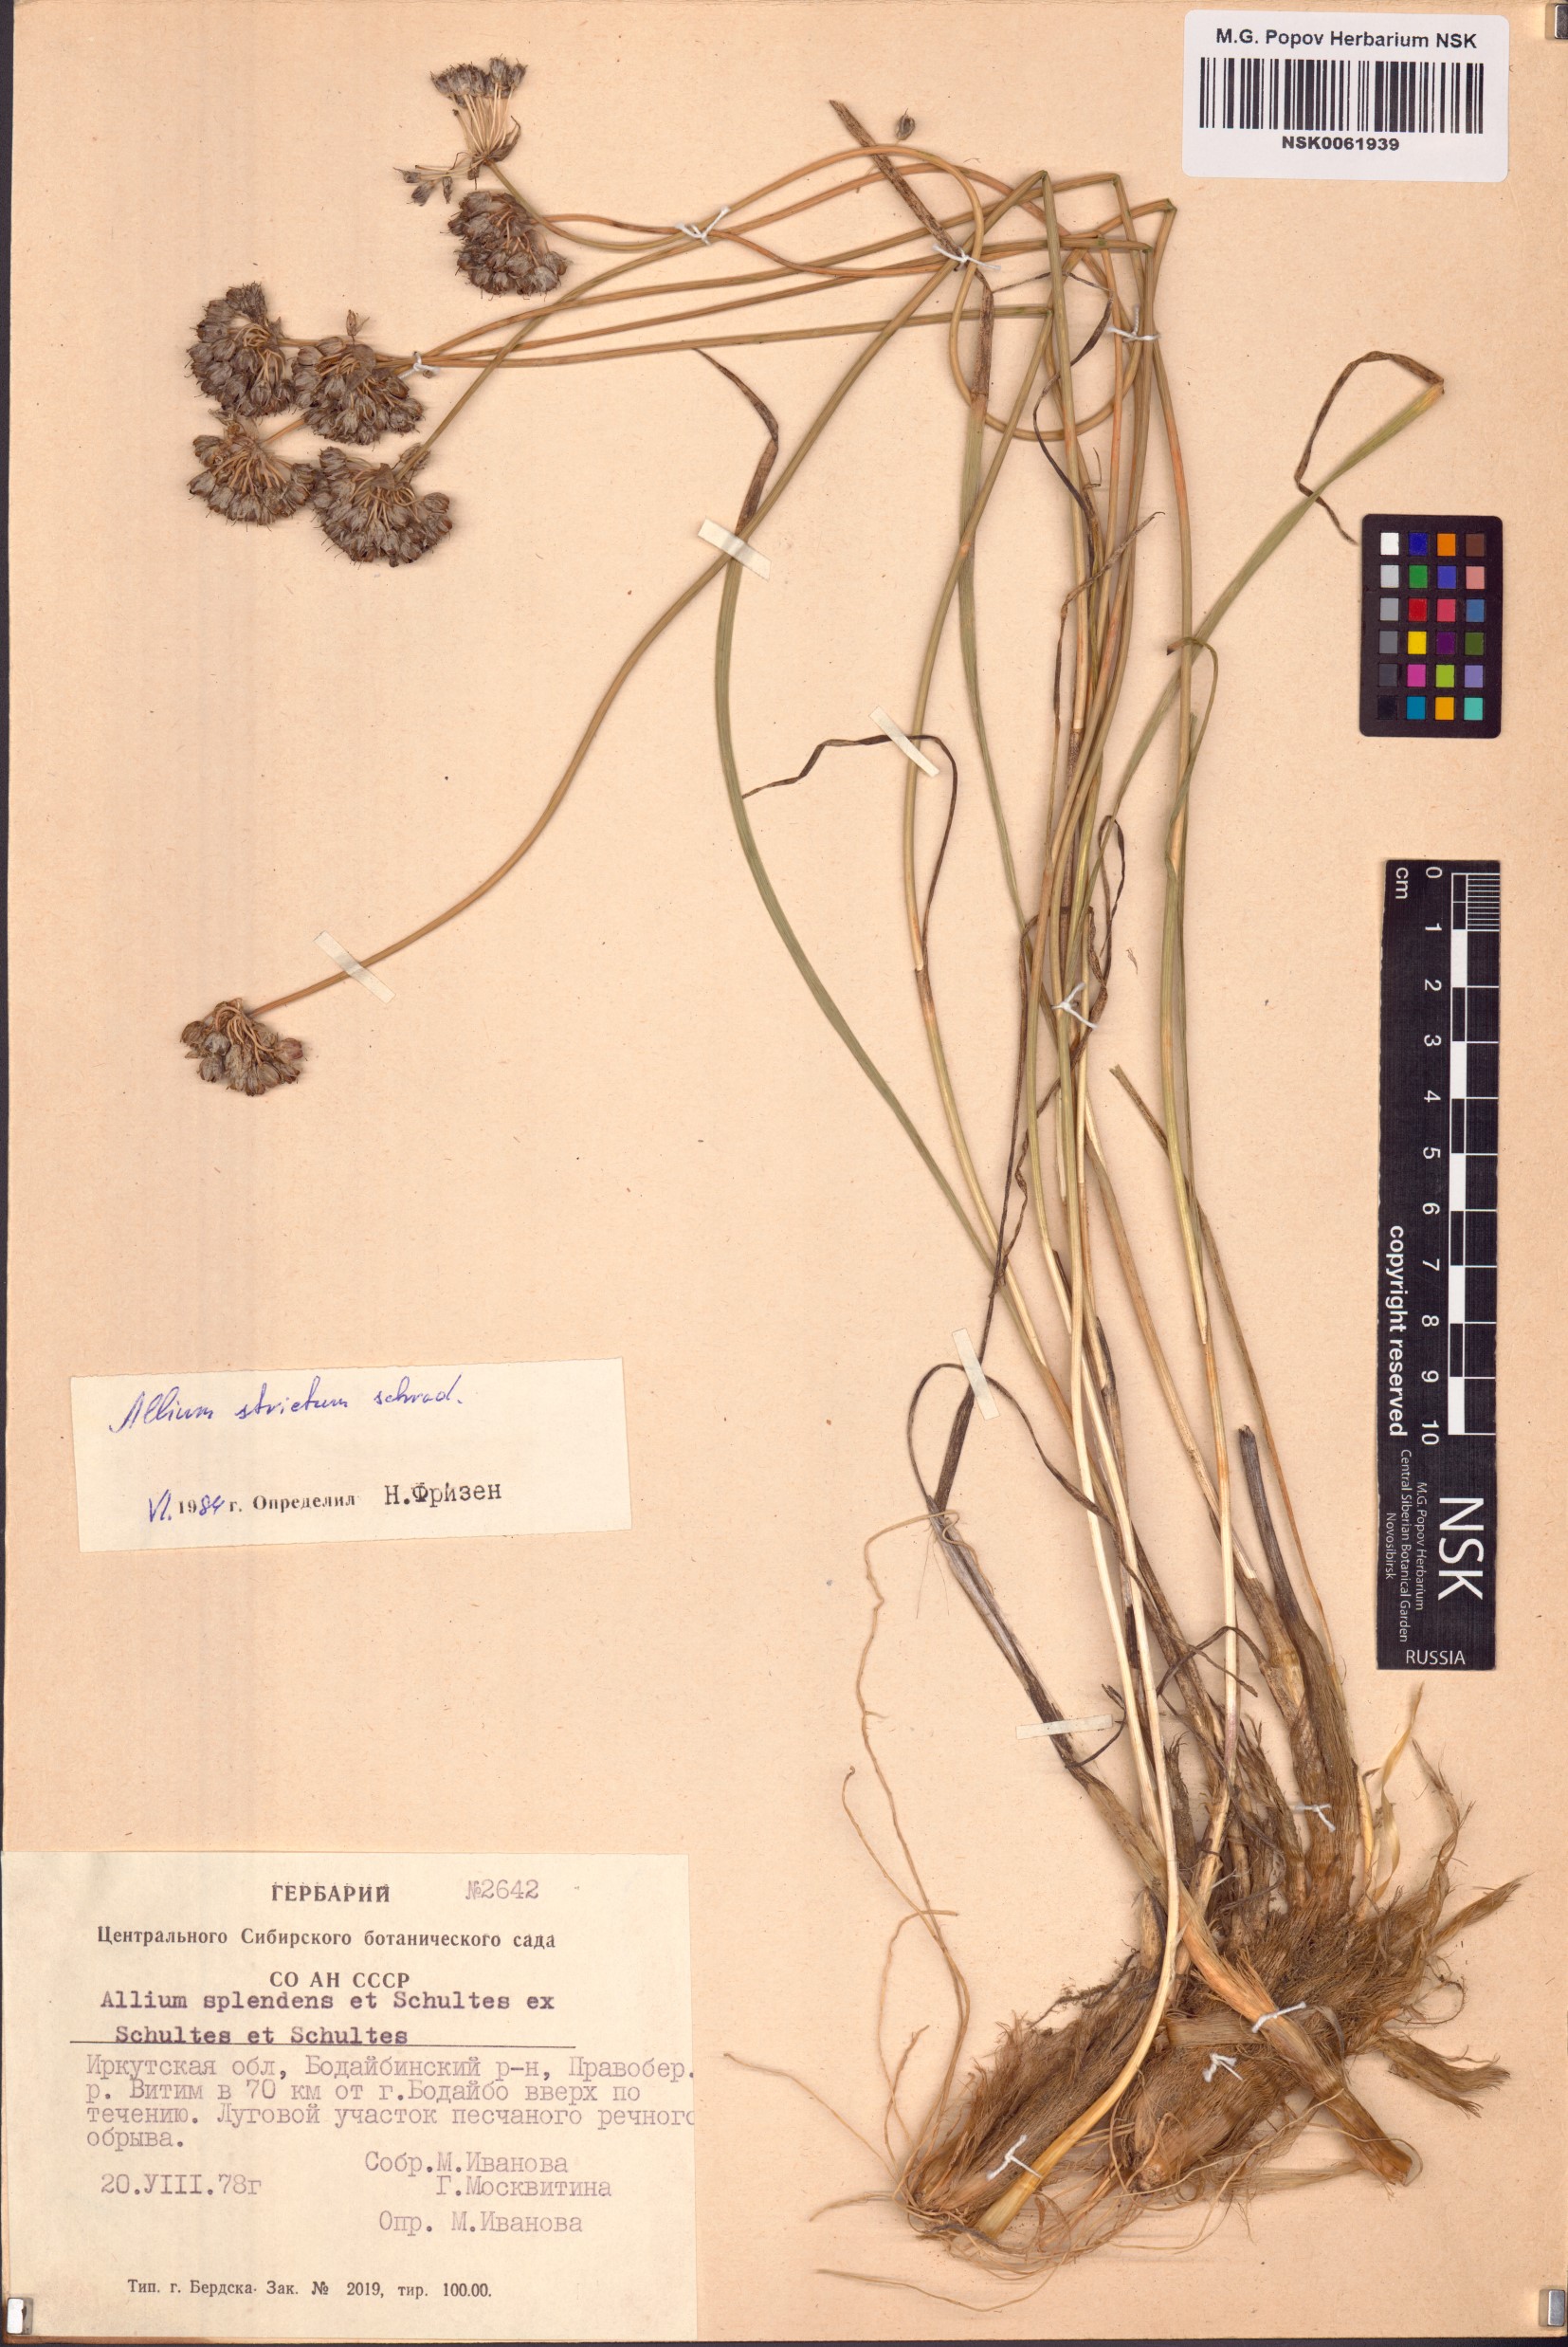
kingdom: Plantae
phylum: Tracheophyta
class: Liliopsida
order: Asparagales
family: Amaryllidaceae
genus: Allium
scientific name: Allium strictum
